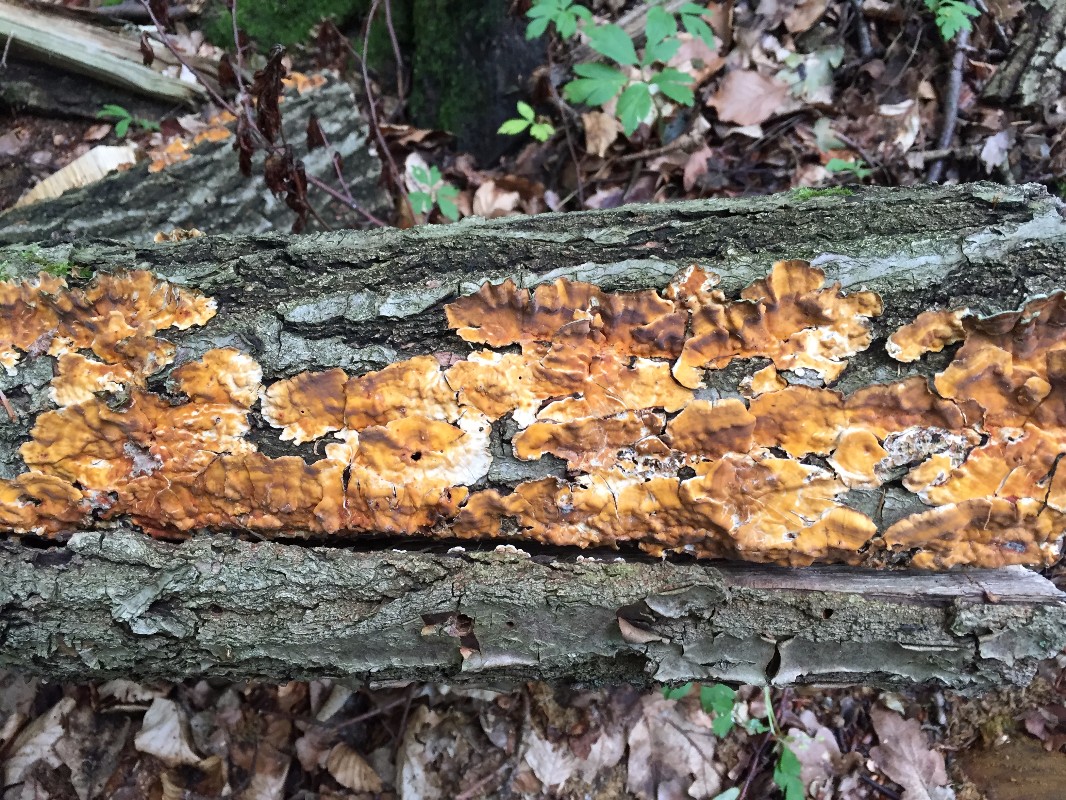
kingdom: Fungi
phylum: Basidiomycota
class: Agaricomycetes
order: Russulales
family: Stereaceae
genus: Stereum
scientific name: Stereum hirsutum
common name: håret lædersvamp
